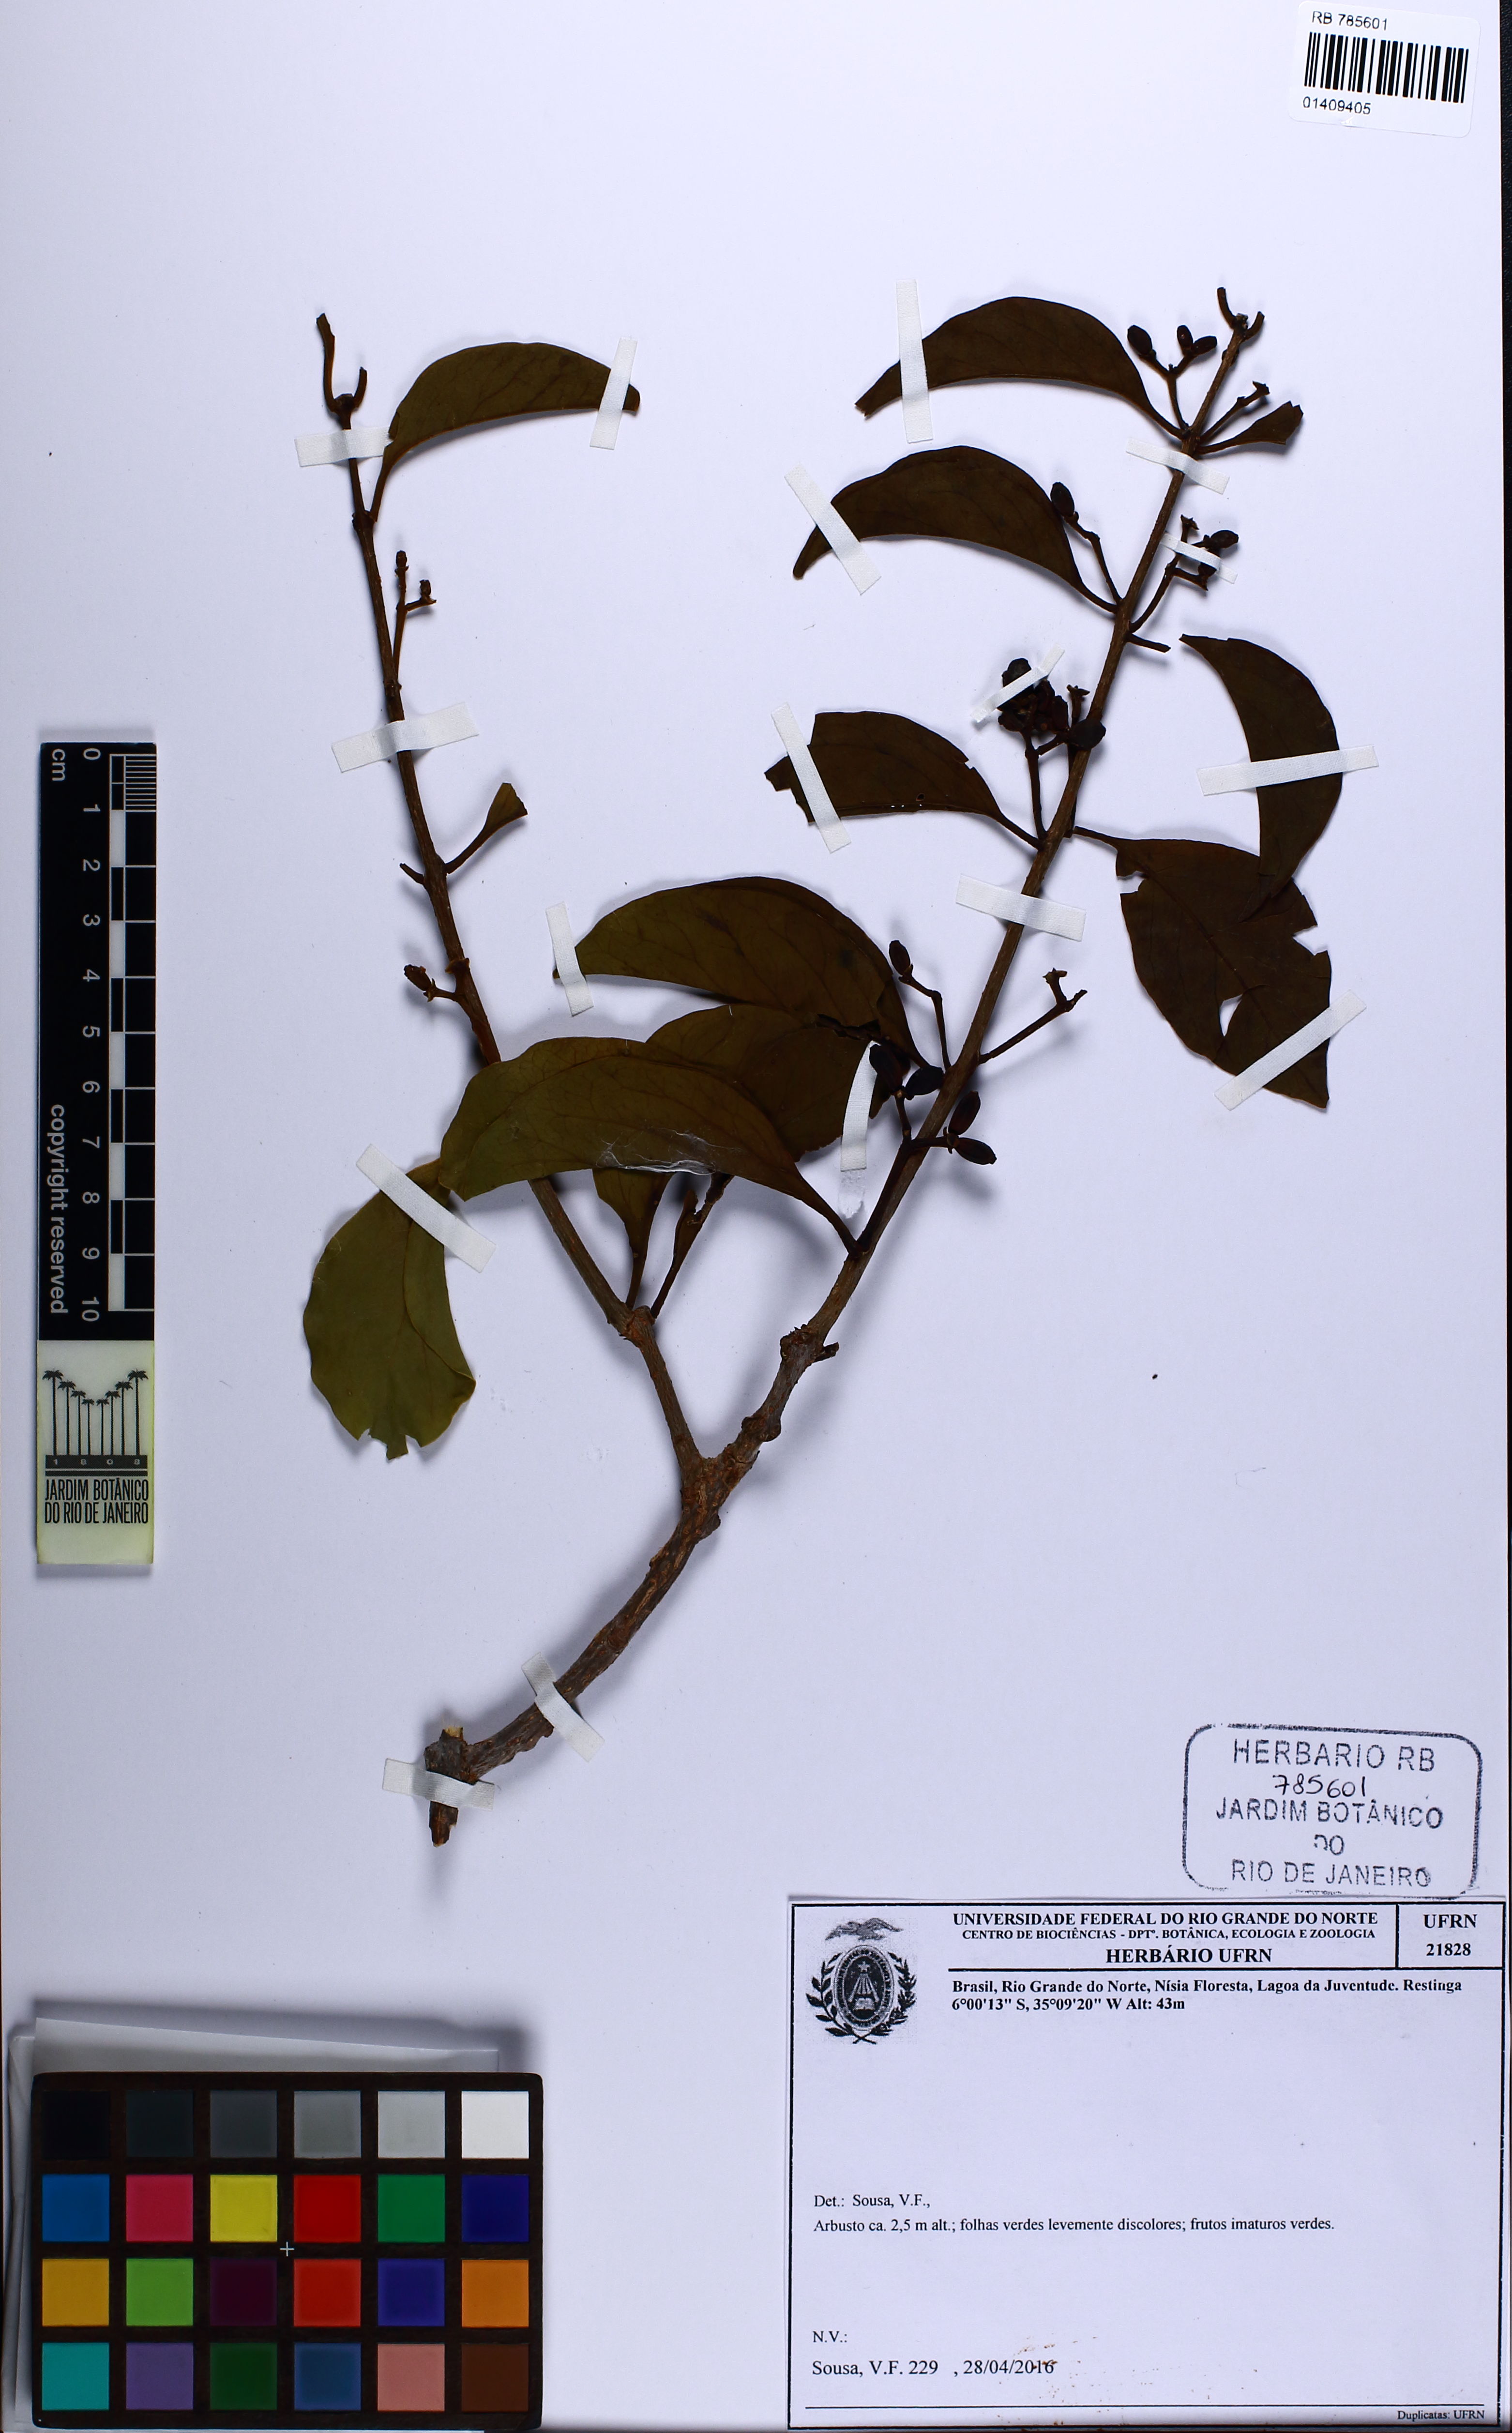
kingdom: Plantae
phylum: Tracheophyta
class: Magnoliopsida
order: Santalales
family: Loranthaceae
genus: Struthanthus
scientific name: Struthanthus syringifolius
